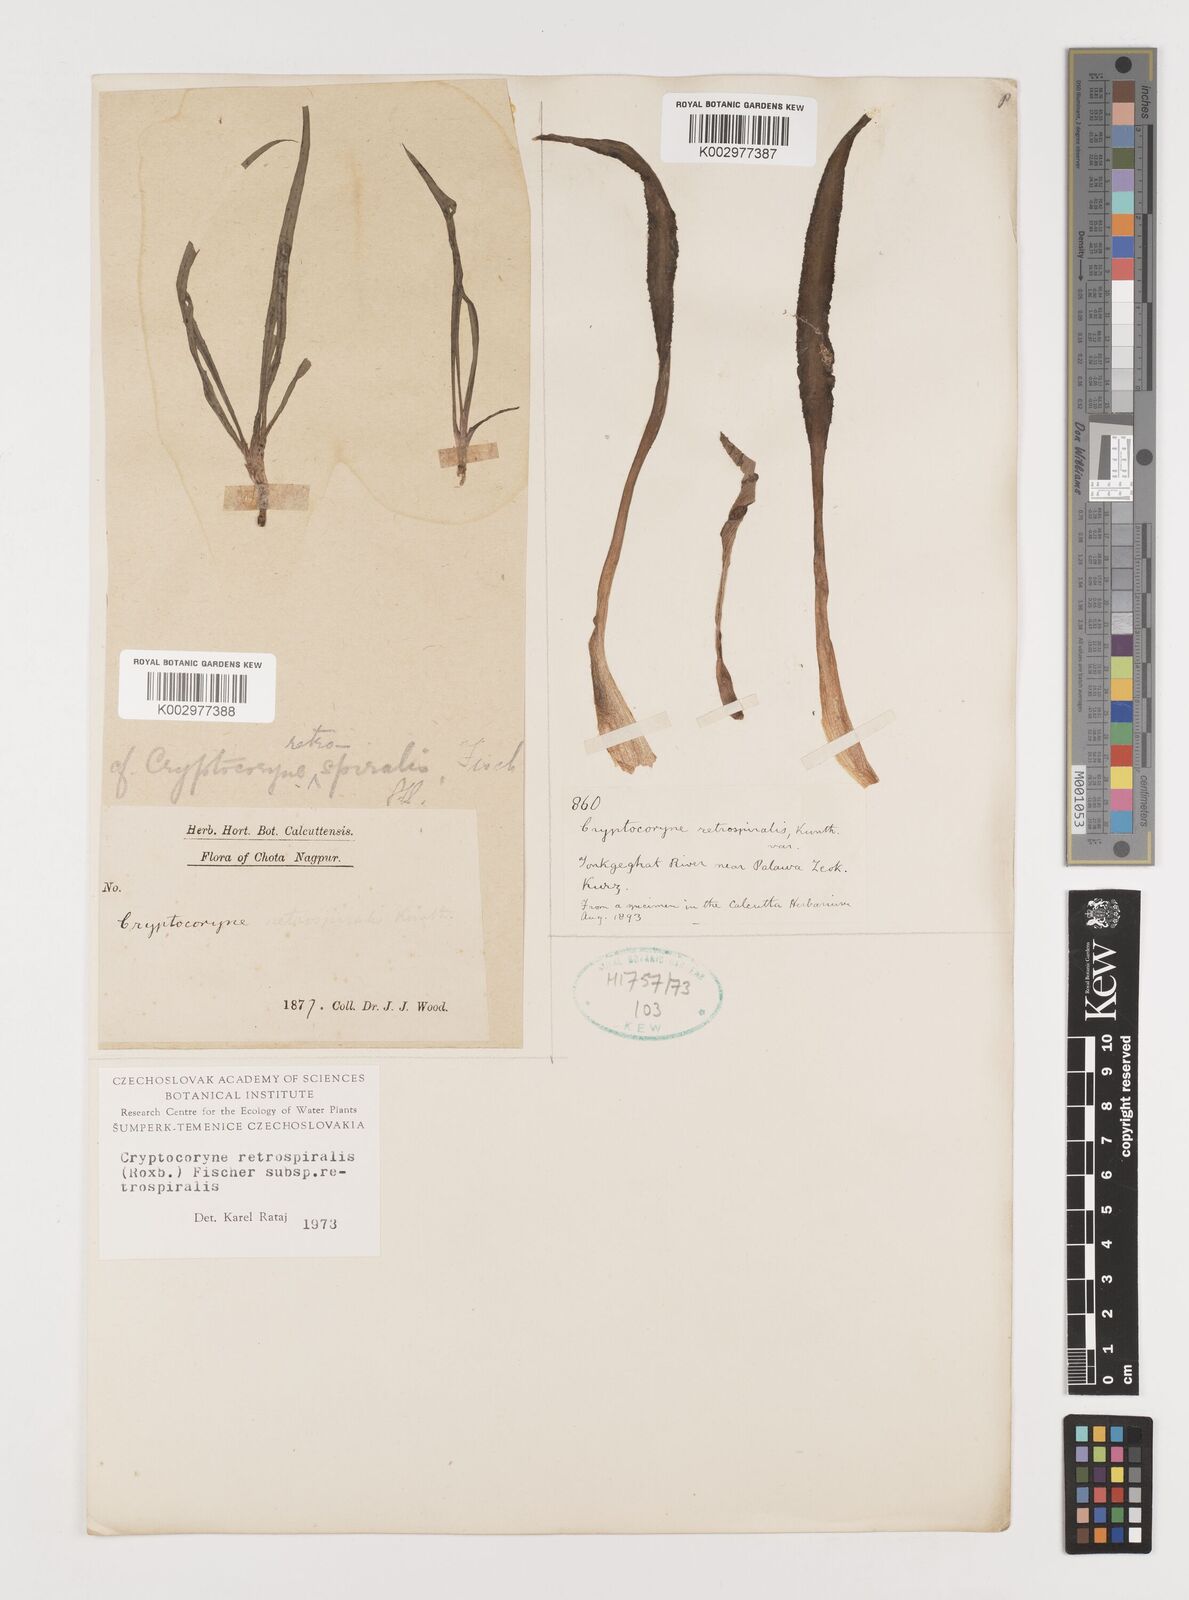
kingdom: Plantae
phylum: Tracheophyta
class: Liliopsida
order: Alismatales
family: Araceae
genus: Cryptocoryne
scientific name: Cryptocoryne retrospiralis
